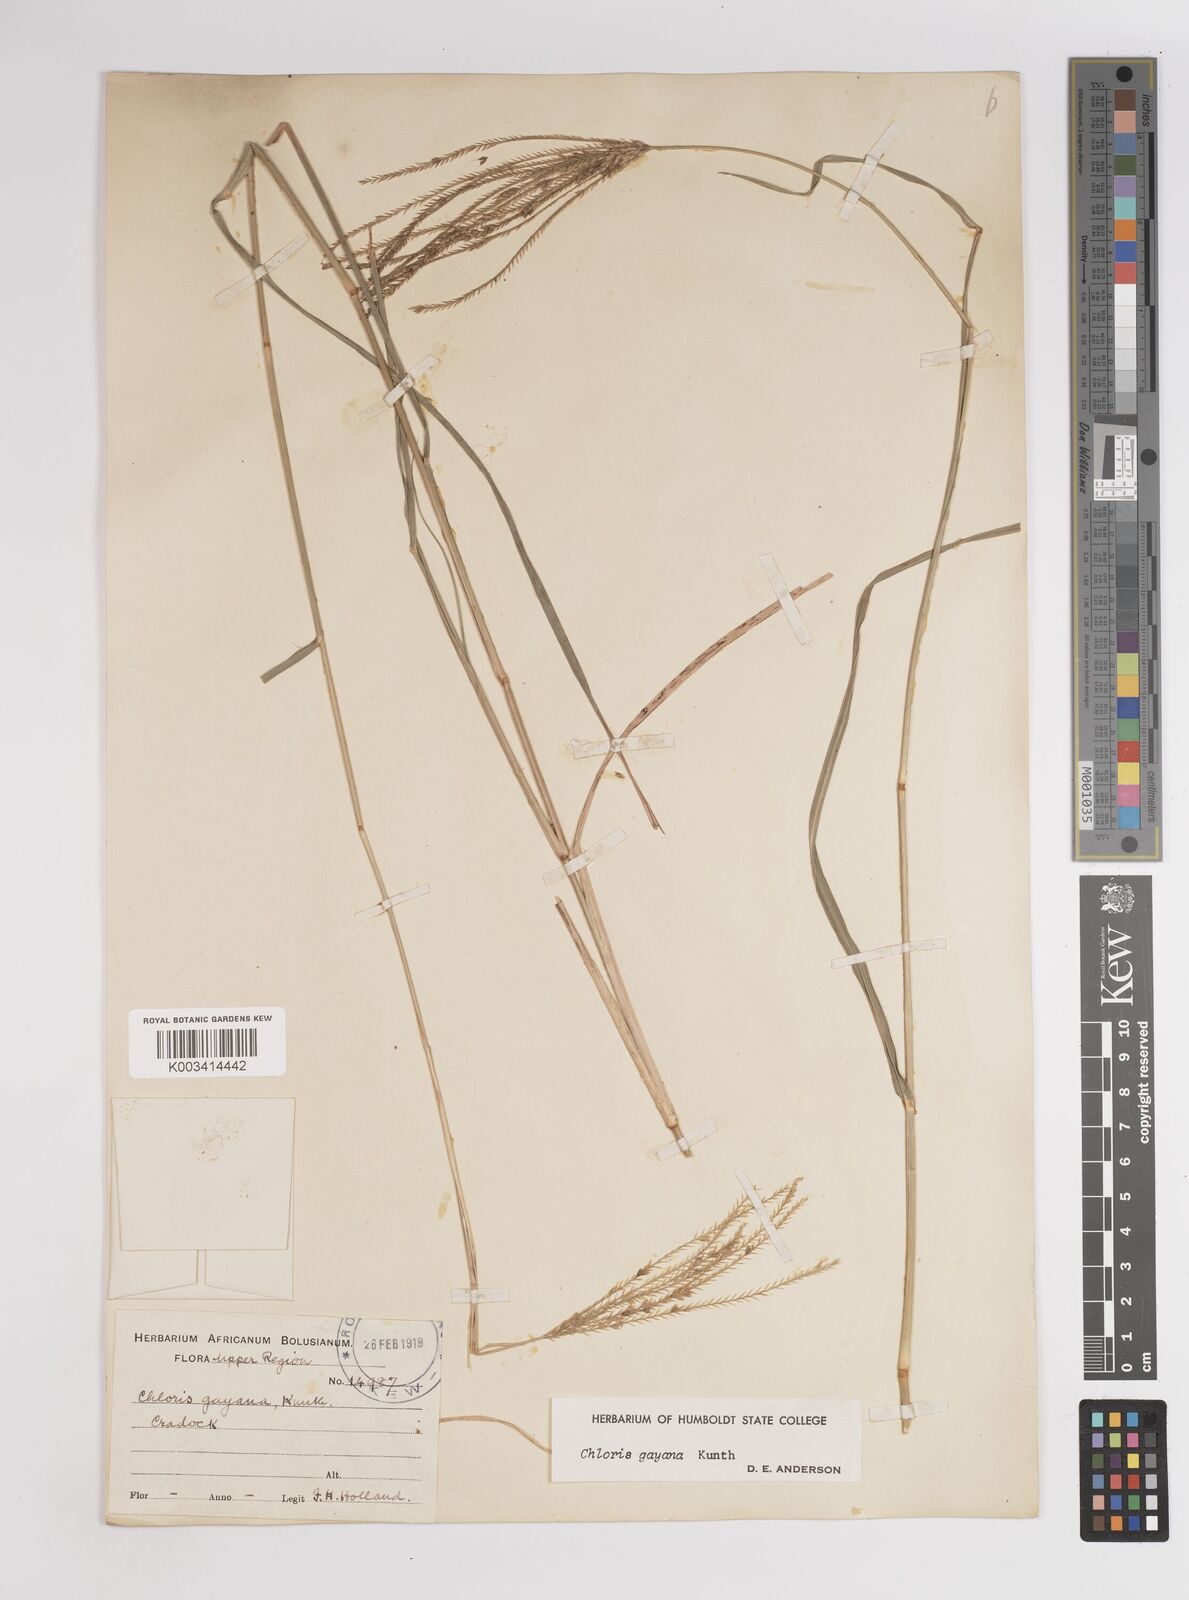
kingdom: Plantae
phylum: Tracheophyta
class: Liliopsida
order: Poales
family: Poaceae
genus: Chloris
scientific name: Chloris gayana
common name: Rhodes grass
